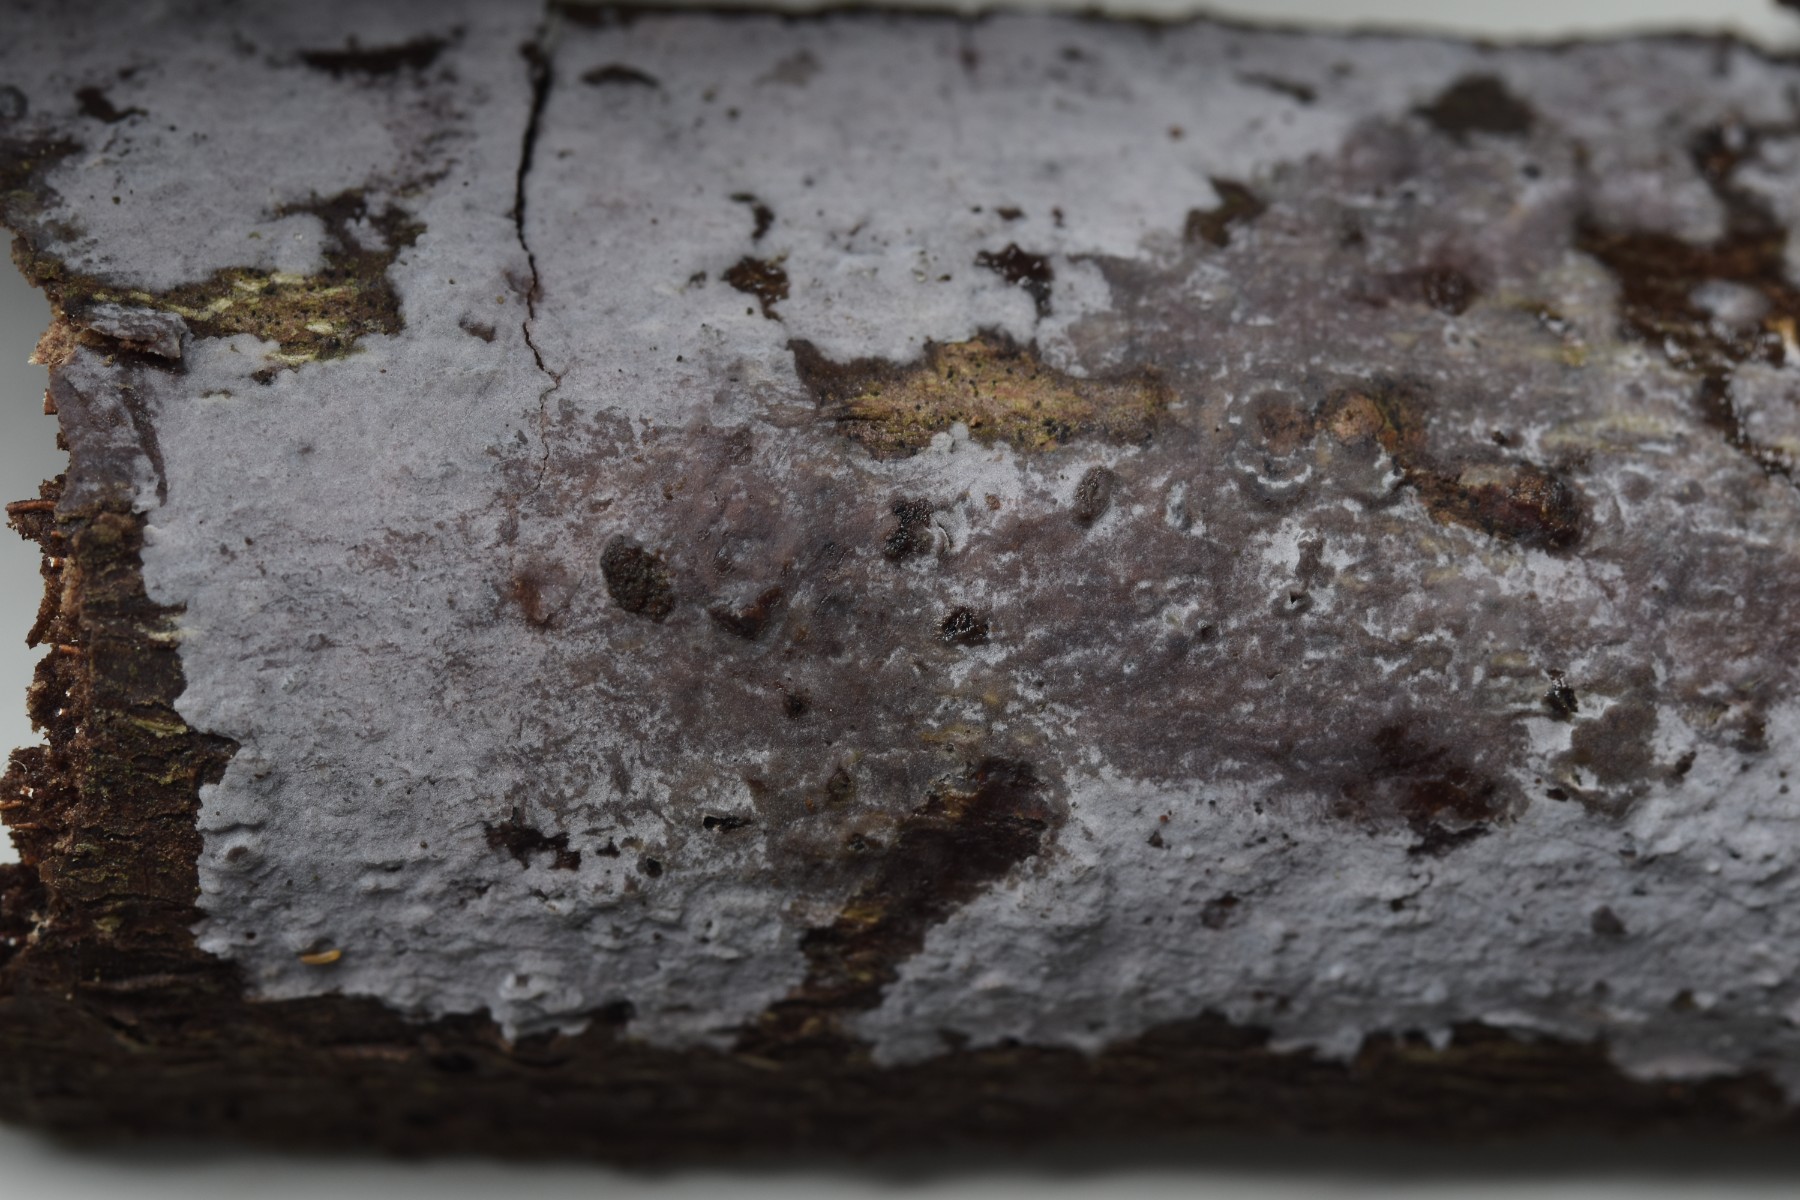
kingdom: Fungi
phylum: Basidiomycota
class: Agaricomycetes
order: Sebacinales
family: Sebacinaceae
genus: Sebacina
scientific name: Sebacina grisea
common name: blågrå bævrehinde
